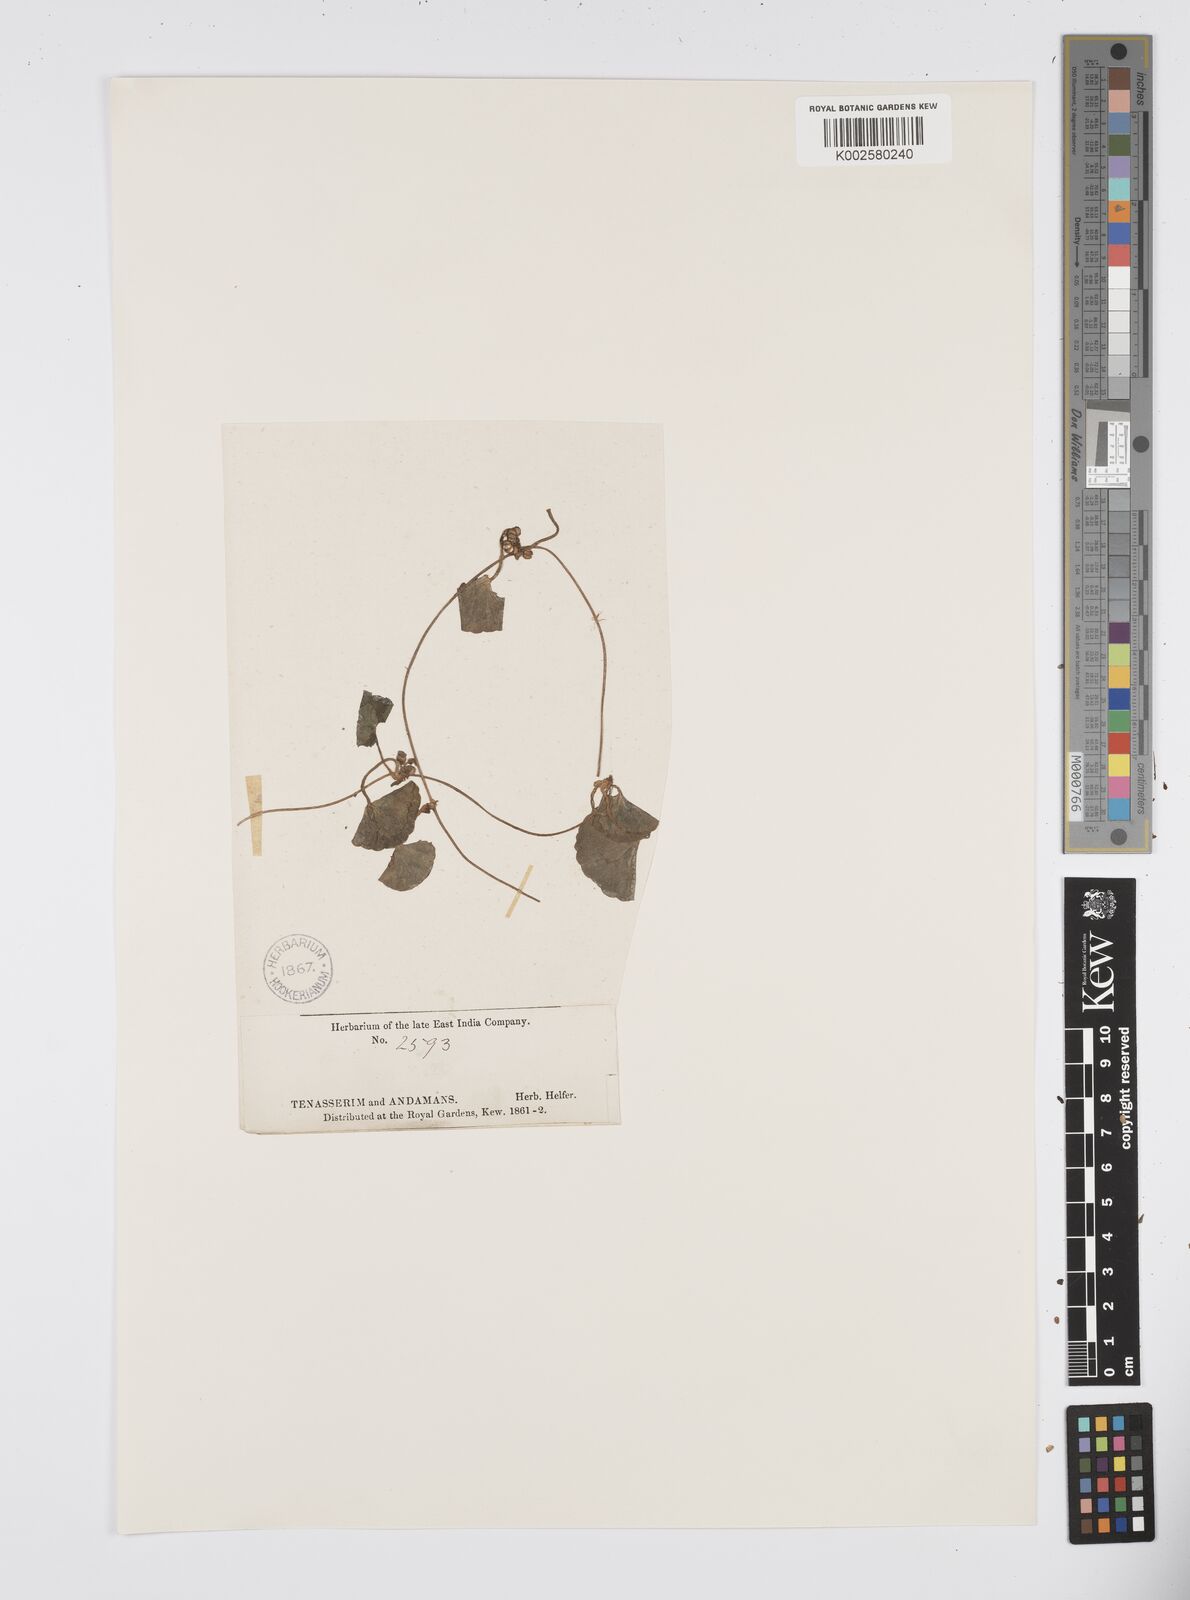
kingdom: Plantae
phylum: Tracheophyta
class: Magnoliopsida
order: Apiales
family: Apiaceae
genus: Centella
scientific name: Centella asiatica
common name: Spadeleaf
